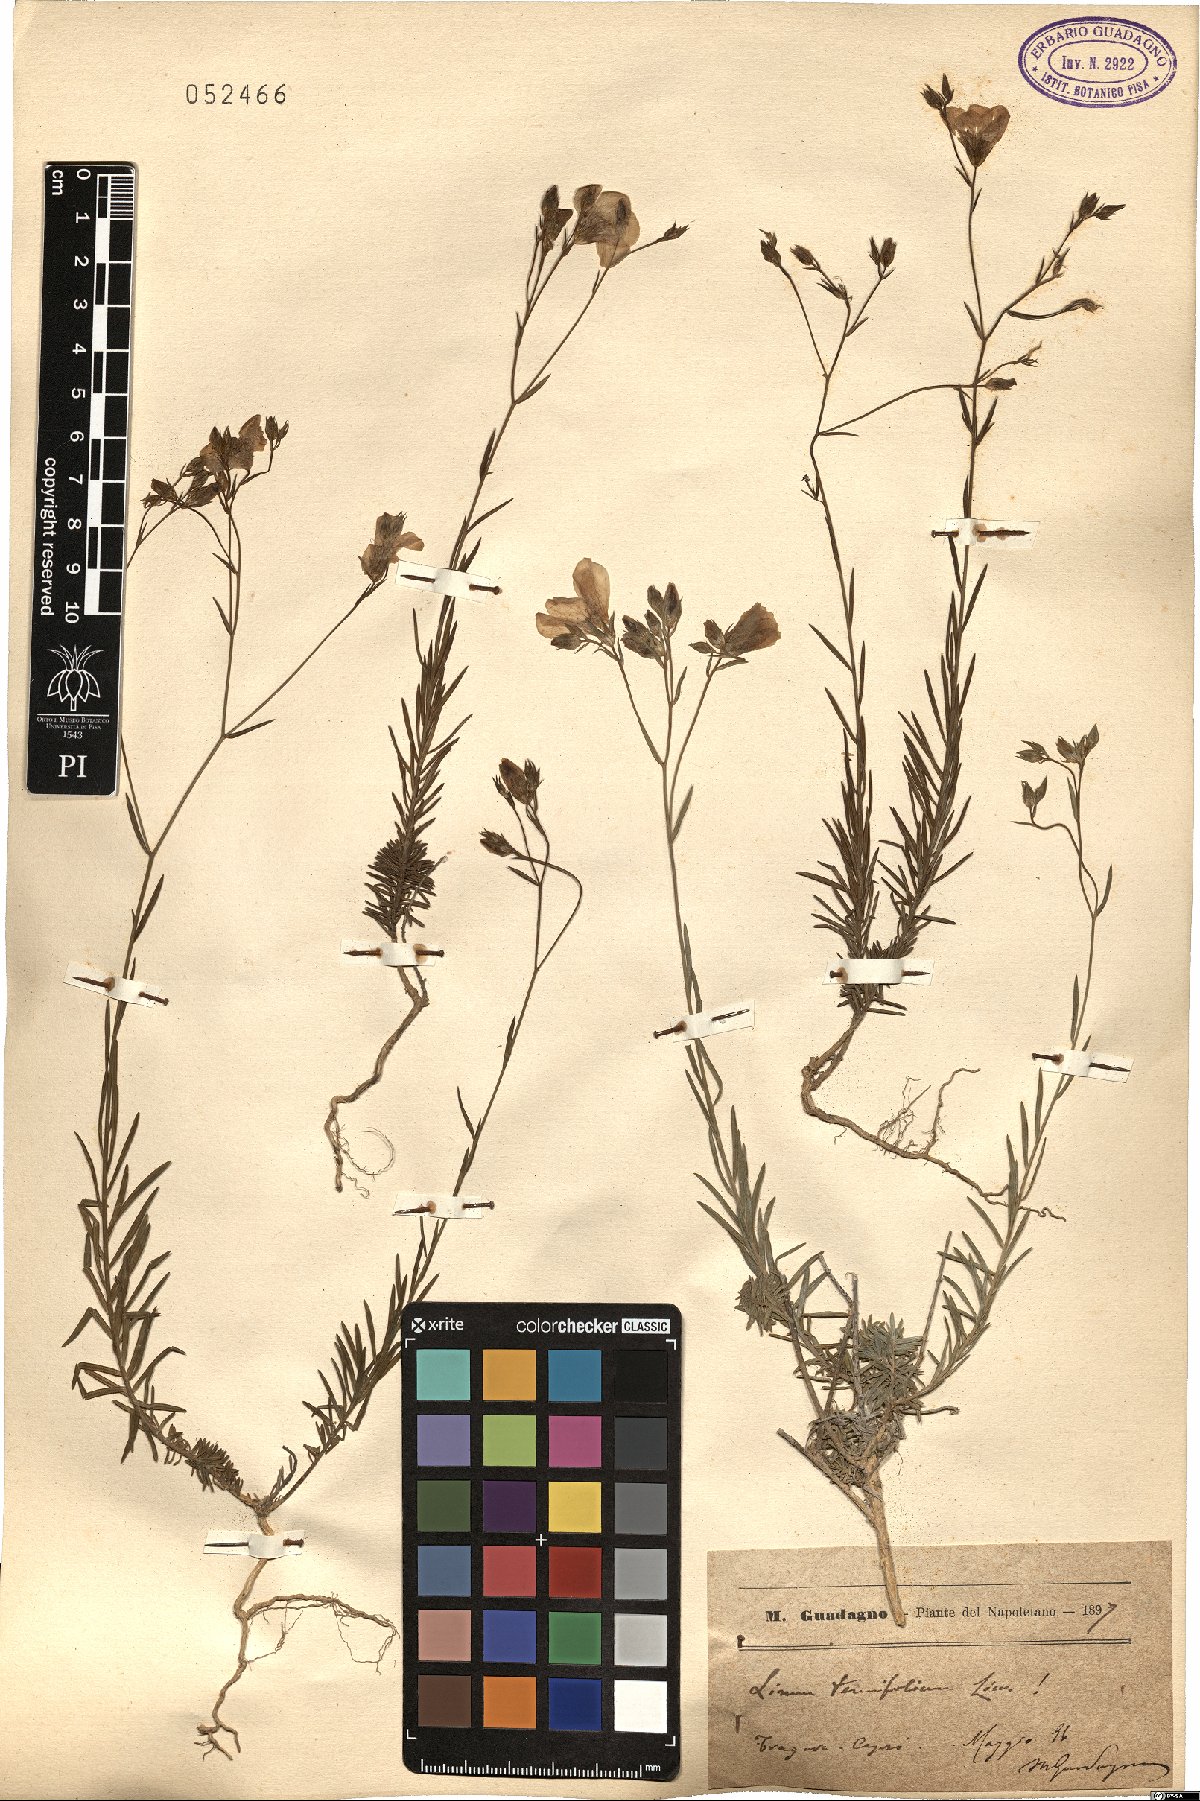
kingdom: Plantae
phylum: Tracheophyta
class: Magnoliopsida
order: Malpighiales
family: Linaceae
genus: Linum
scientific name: Linum tenuifolium
